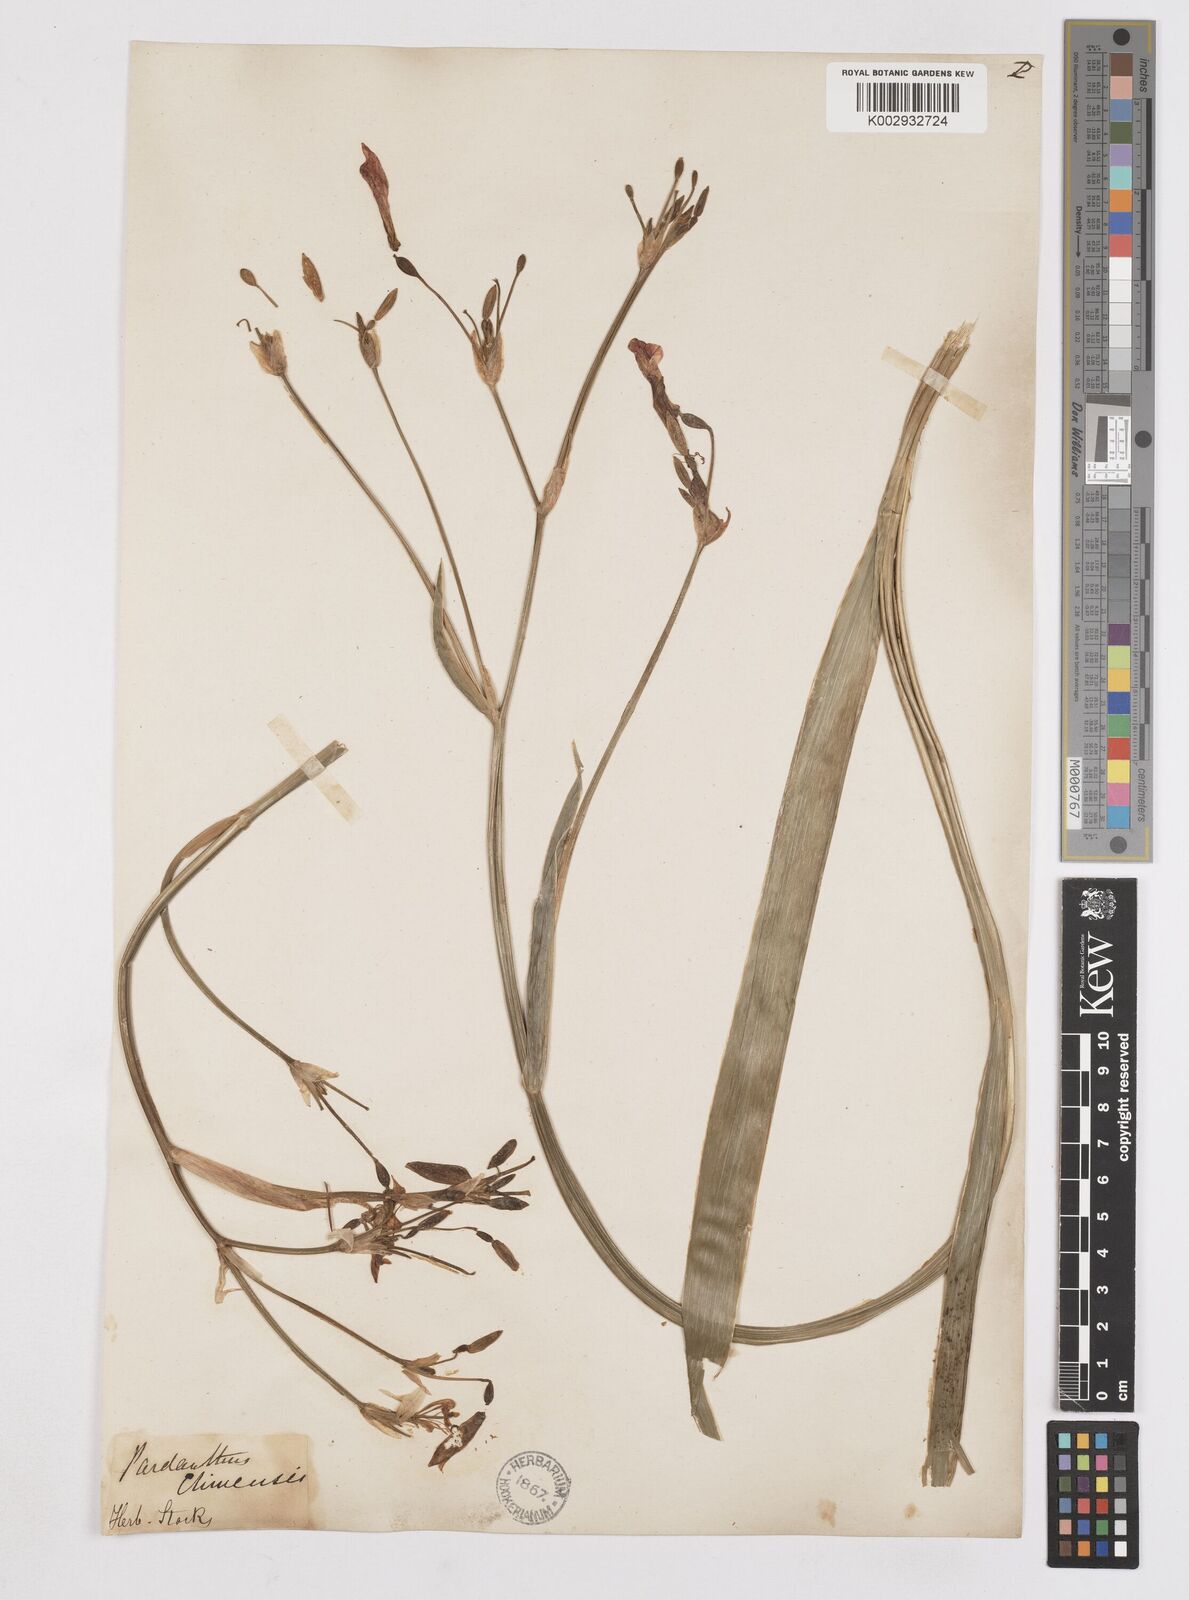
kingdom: Plantae
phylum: Tracheophyta
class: Liliopsida
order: Asparagales
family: Iridaceae
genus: Iris
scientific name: Iris
